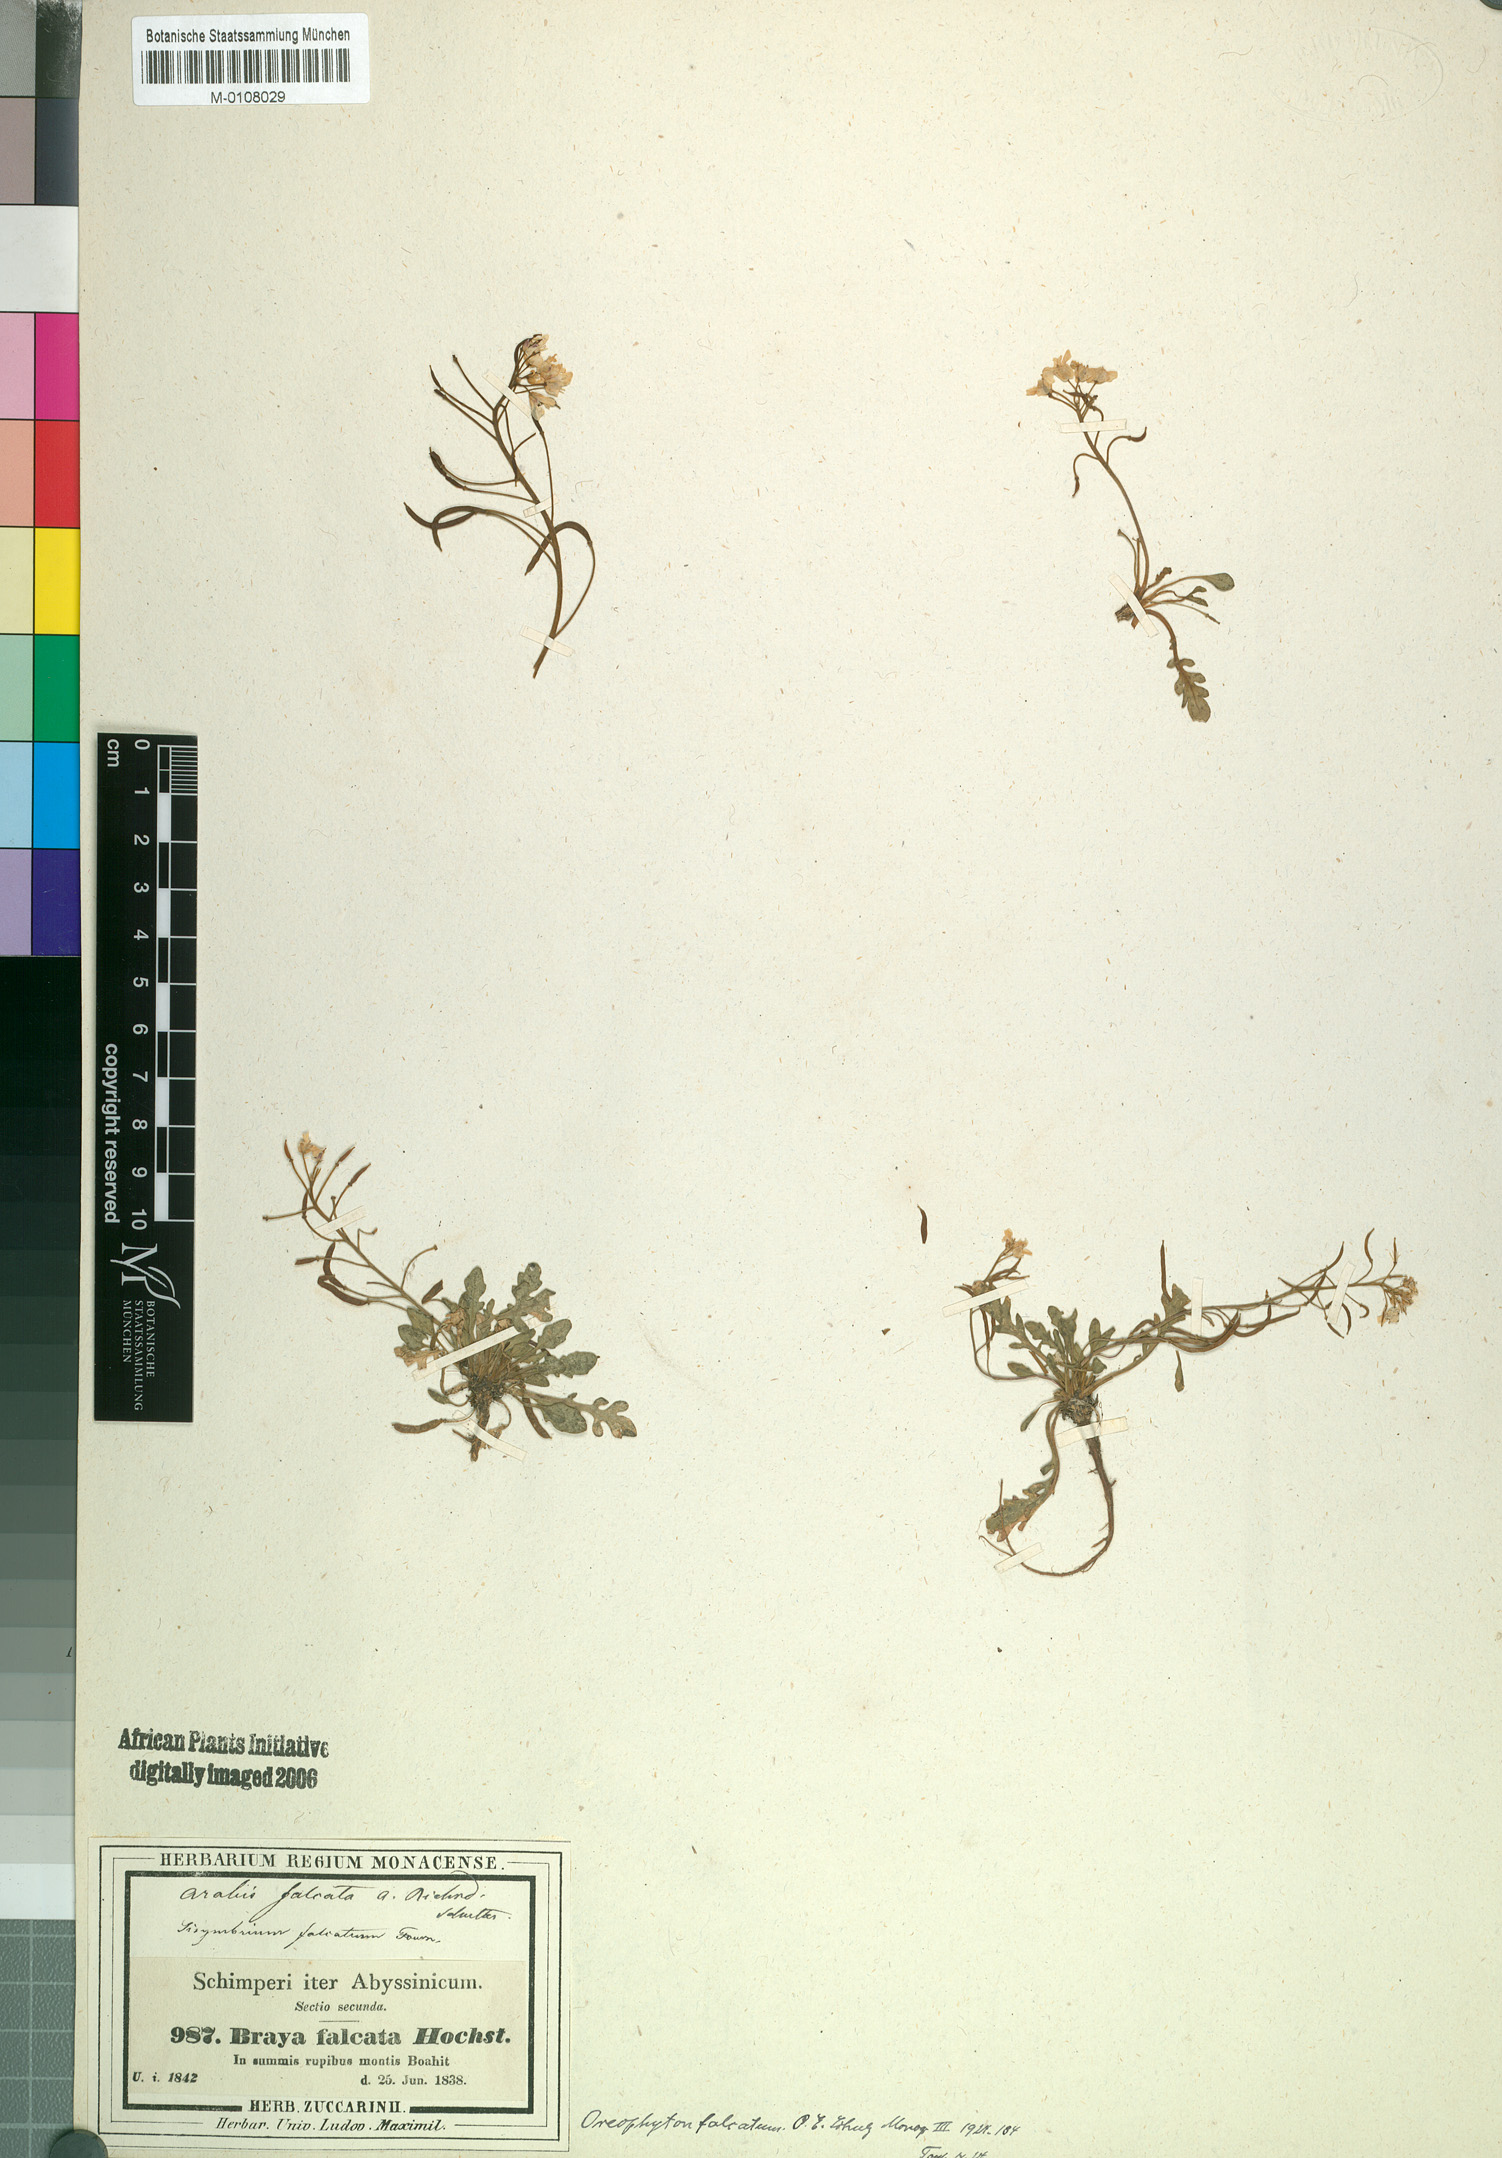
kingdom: Plantae
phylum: Tracheophyta
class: Magnoliopsida
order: Brassicales
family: Brassicaceae
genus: Oreophyton
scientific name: Oreophyton falcatum
